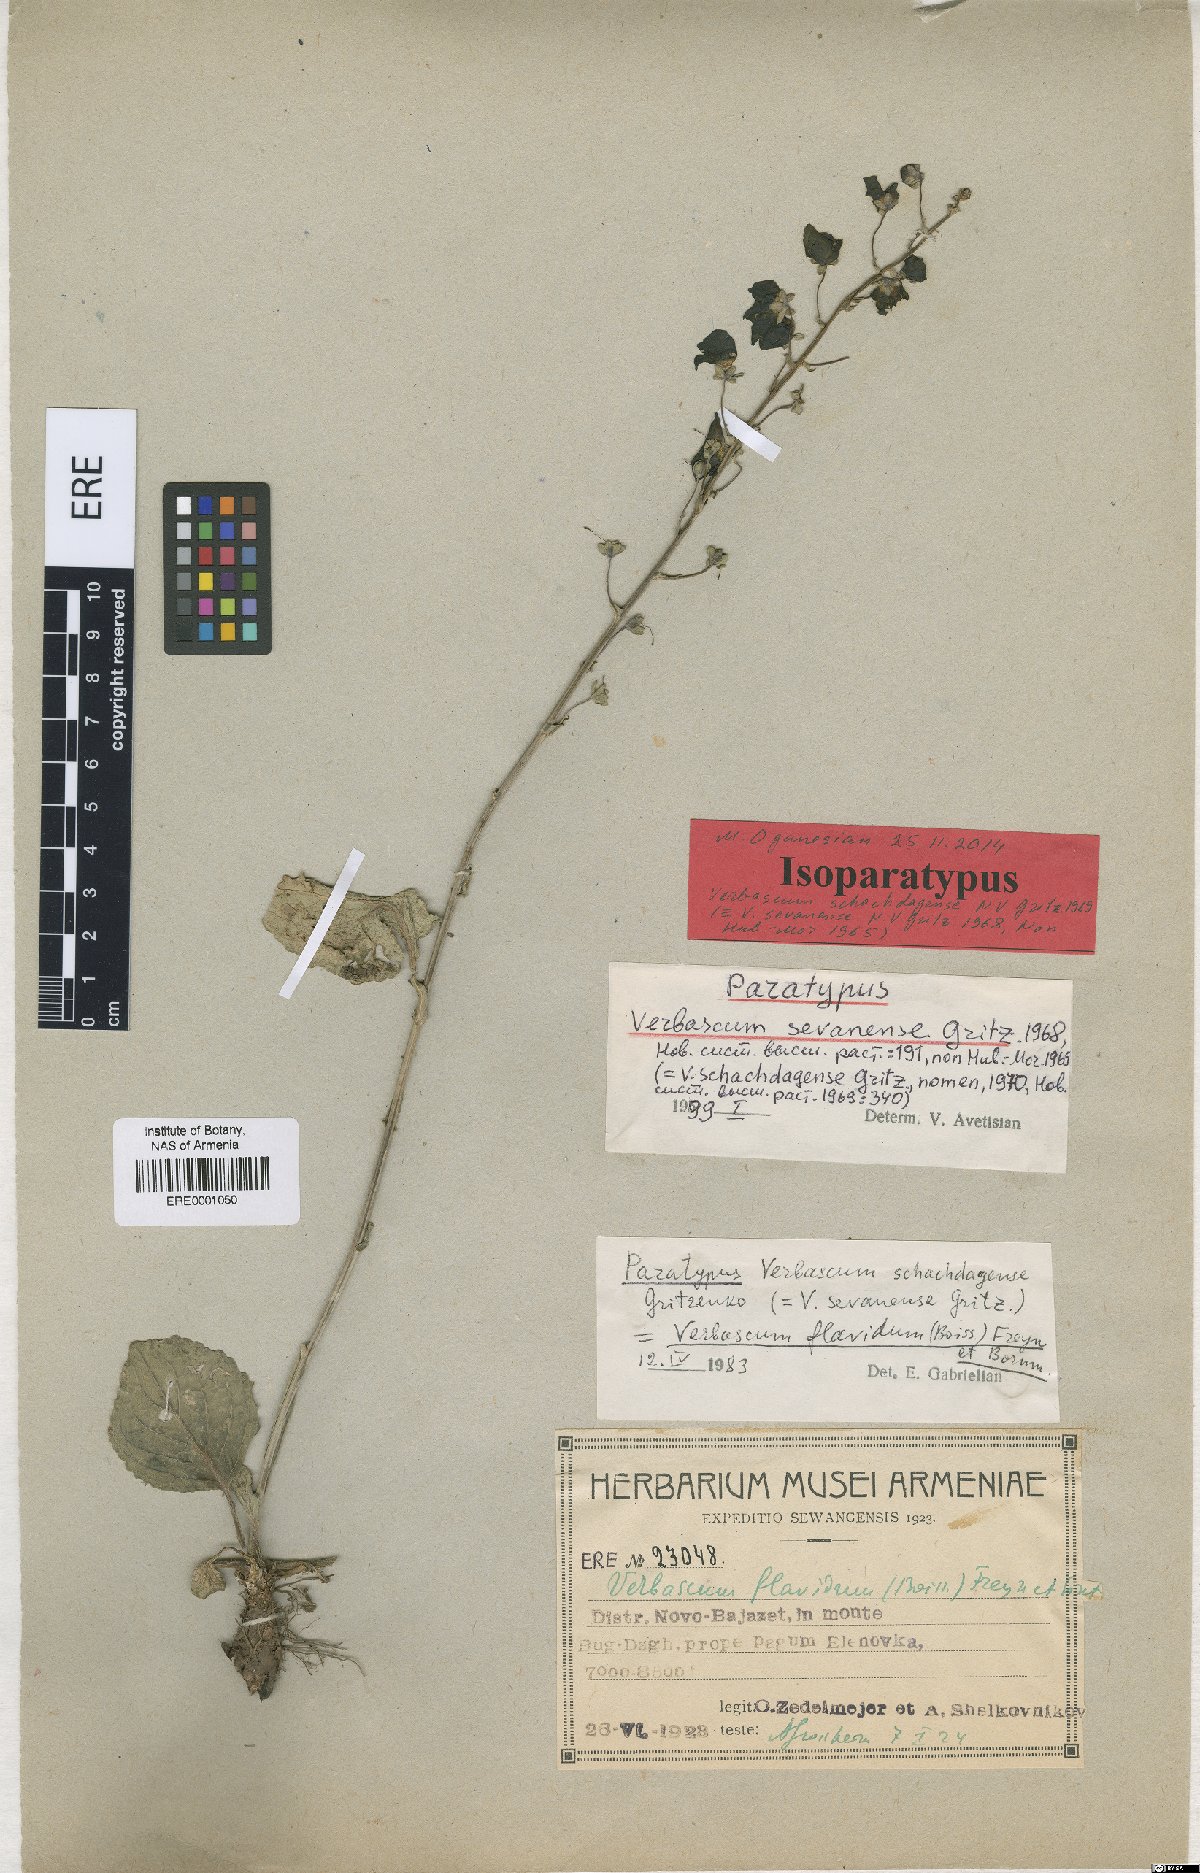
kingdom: Plantae
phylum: Tracheophyta
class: Magnoliopsida
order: Lamiales
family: Scrophulariaceae
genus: Verbascum
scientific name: Verbascum schachdagense
